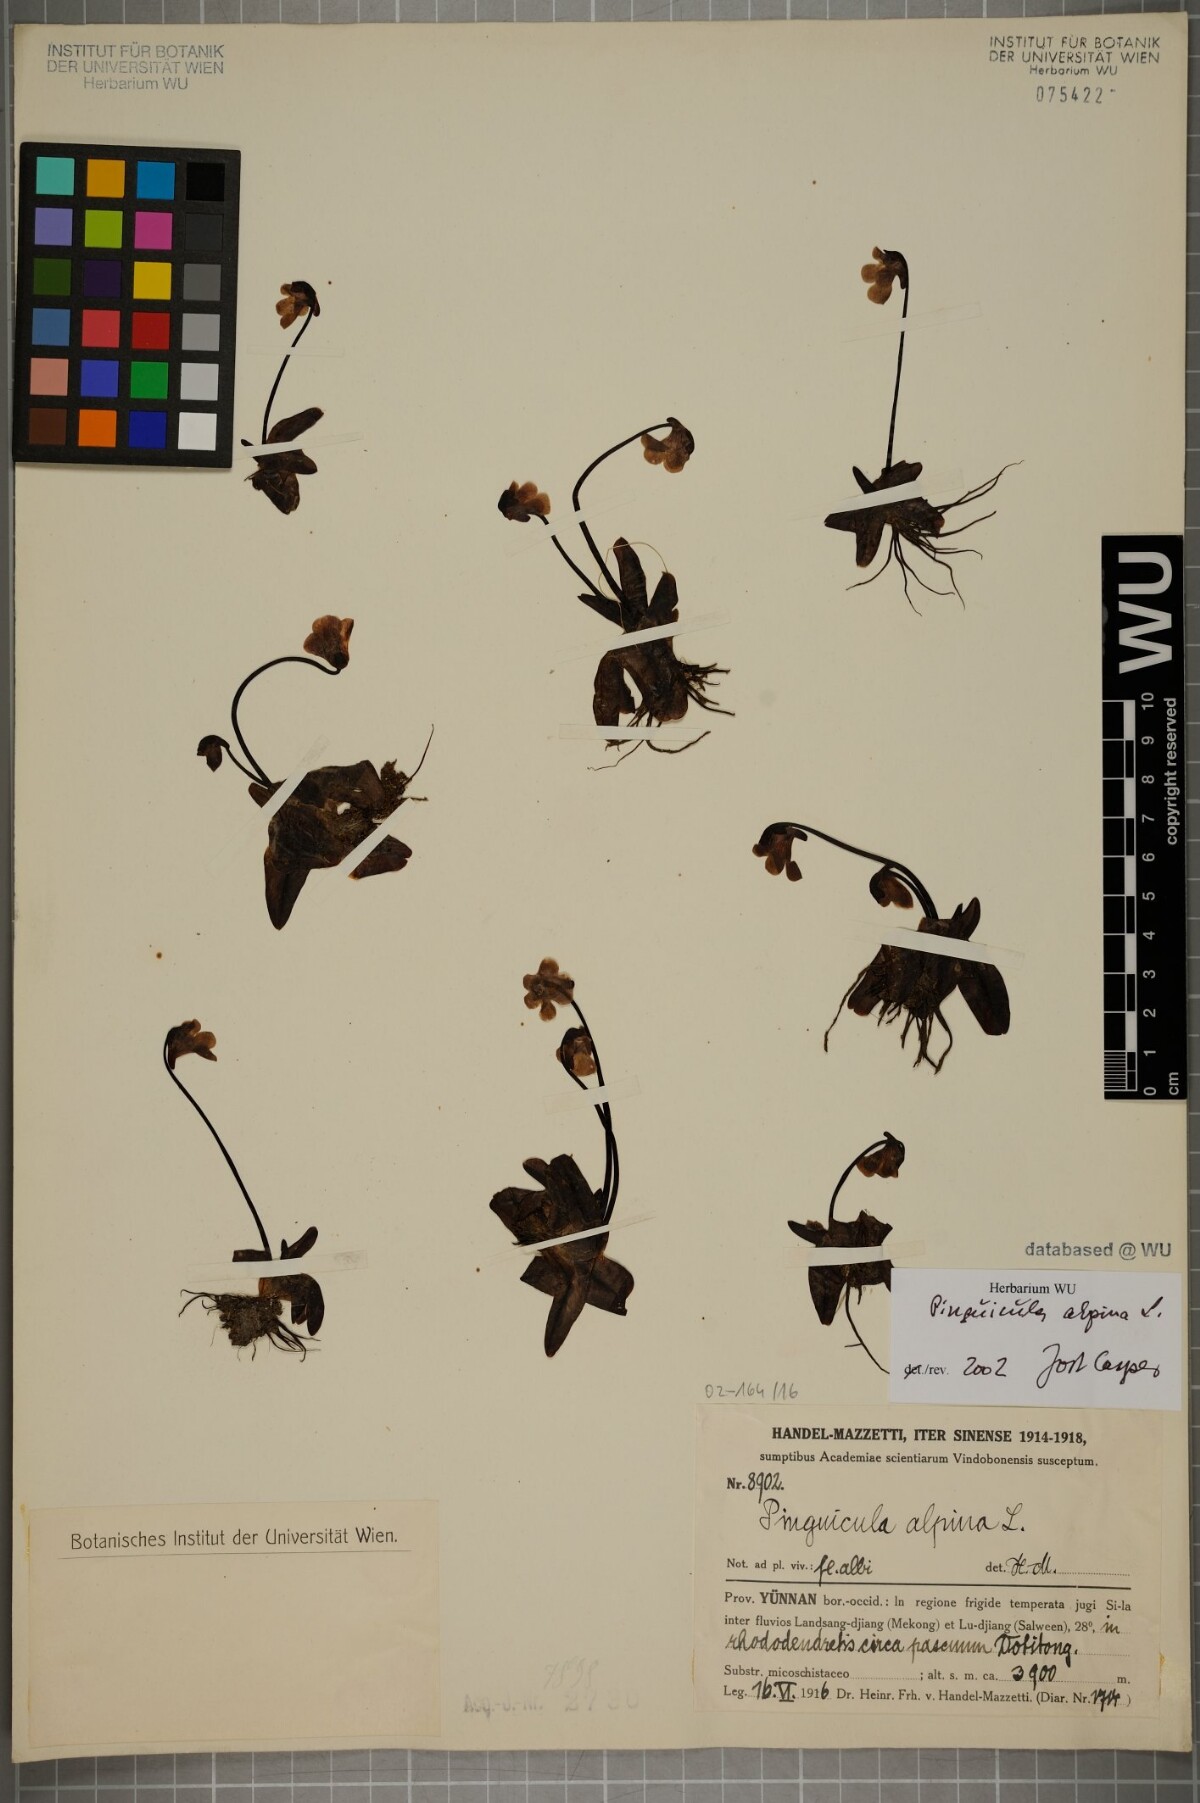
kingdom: Plantae
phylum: Tracheophyta
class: Magnoliopsida
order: Lamiales
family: Lentibulariaceae
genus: Pinguicula
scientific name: Pinguicula alpina
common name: Alpine butterwort
